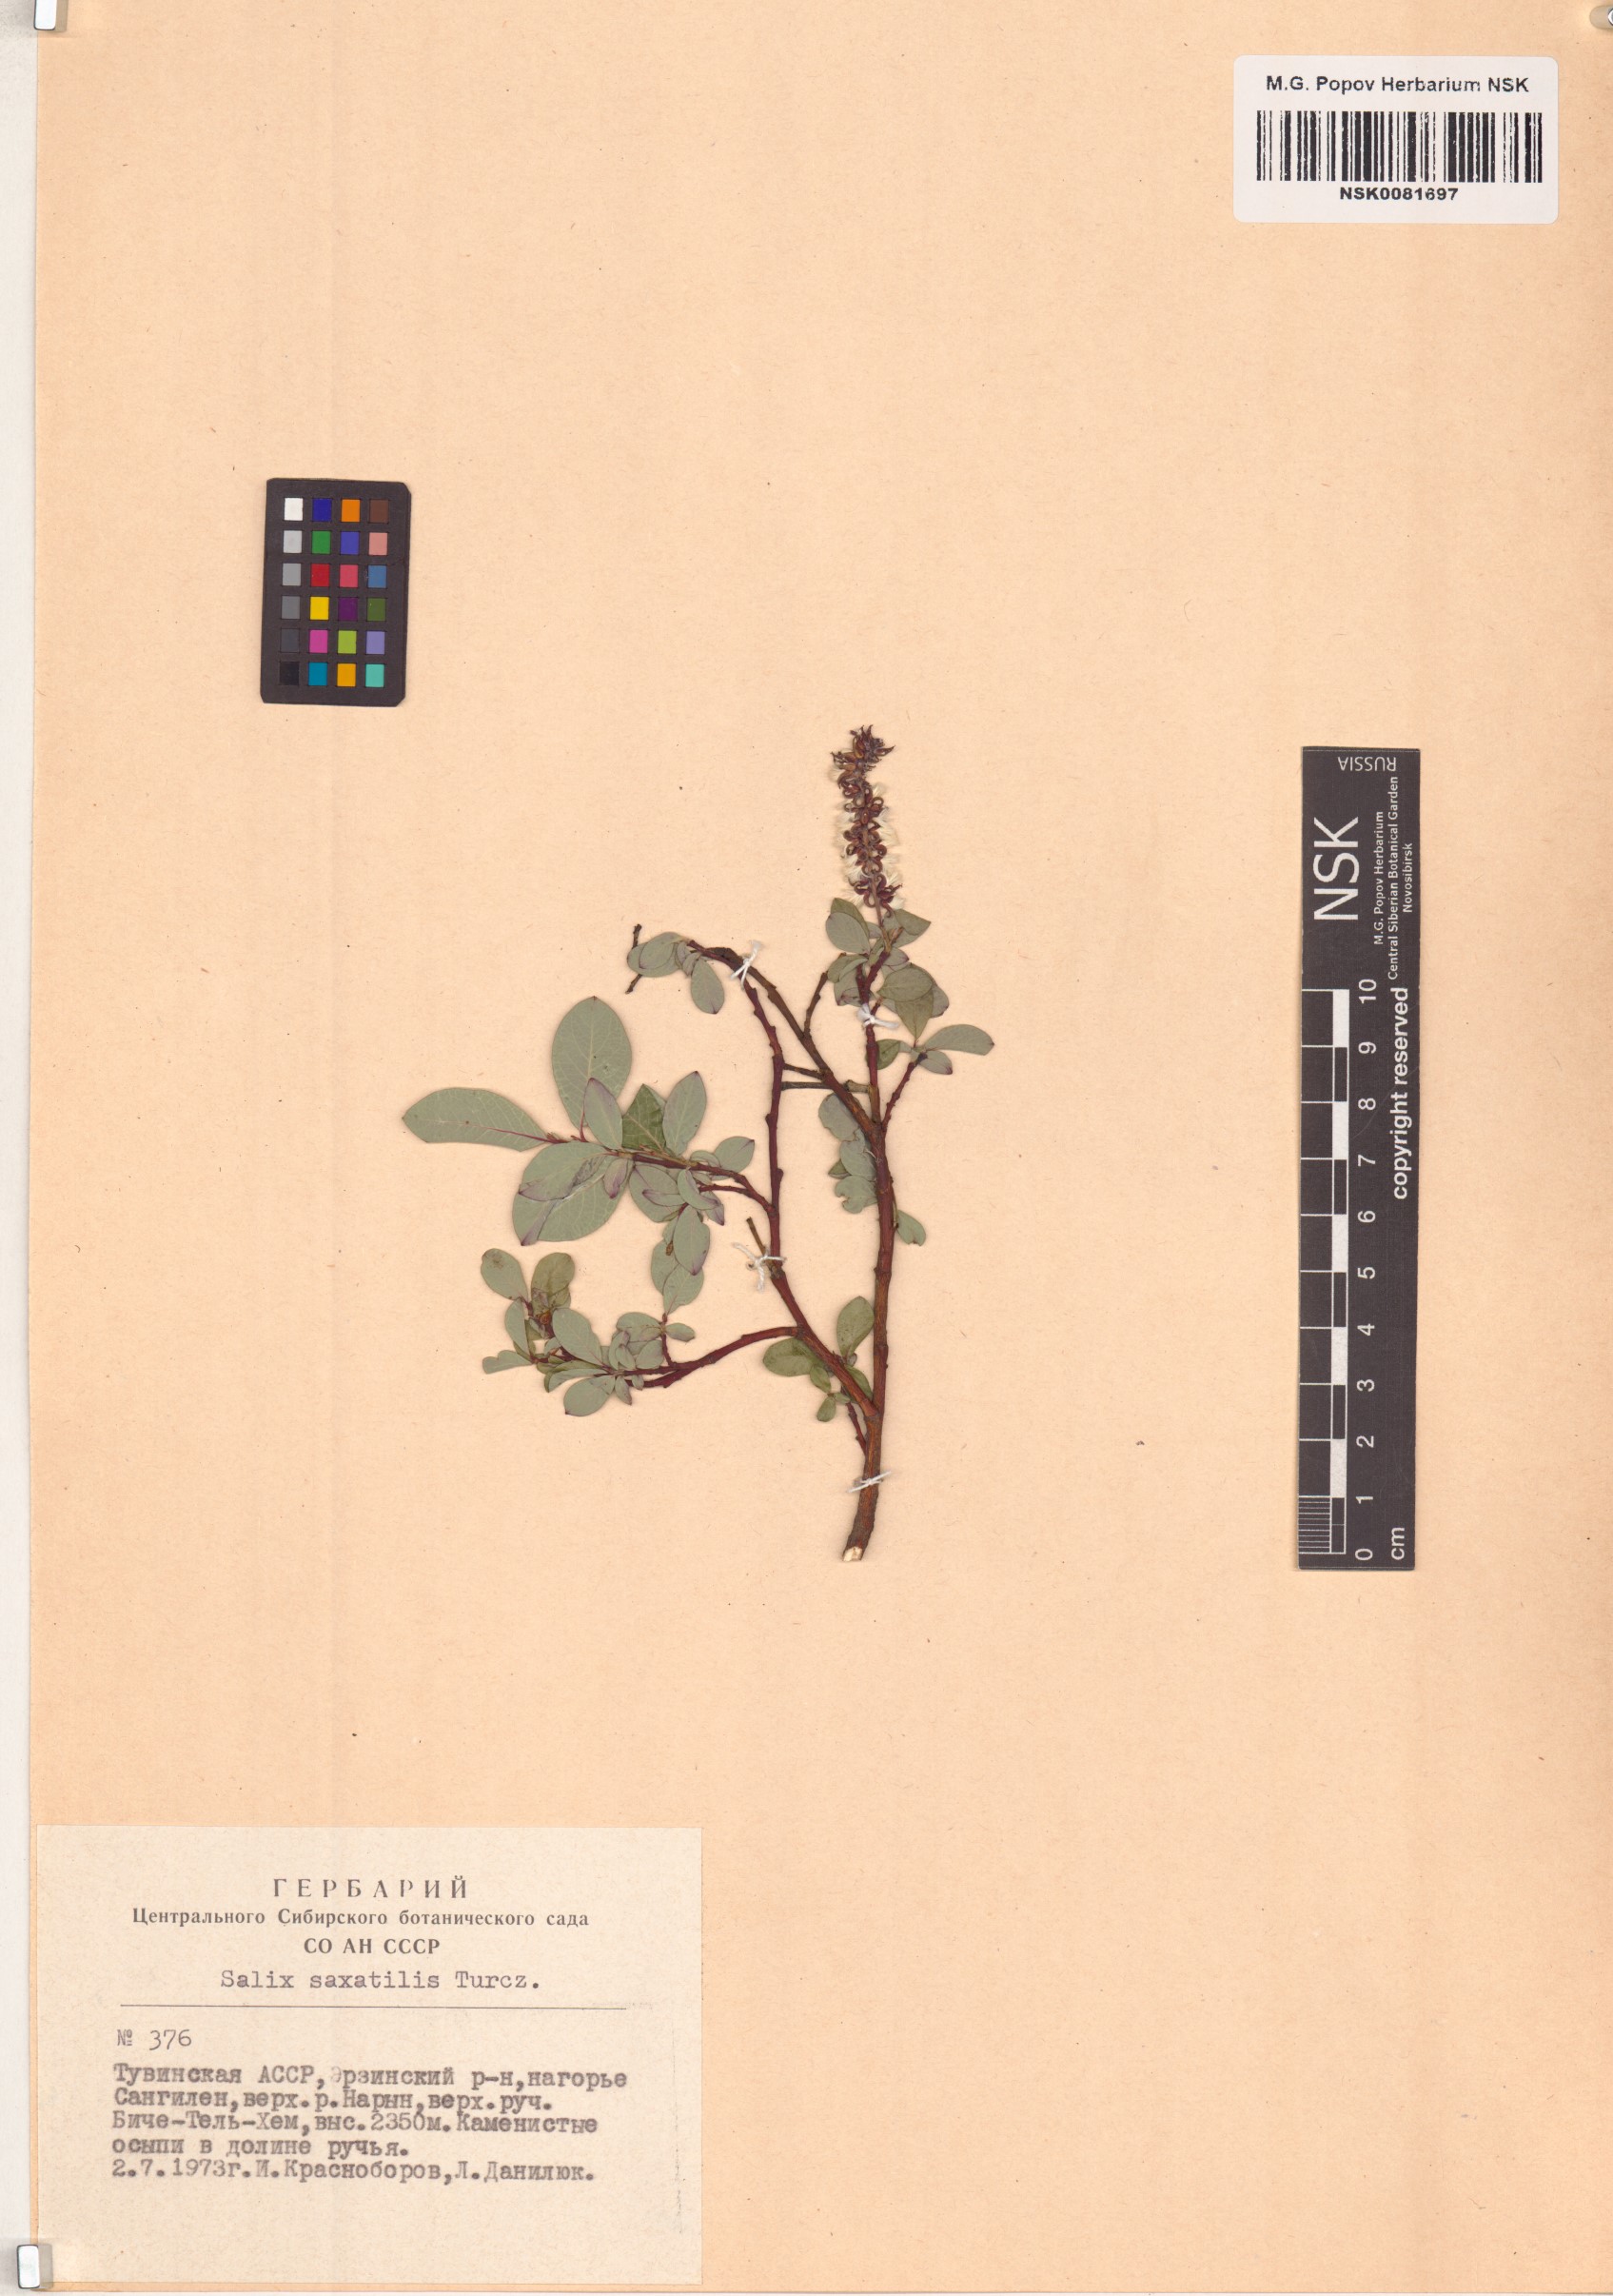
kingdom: Plantae
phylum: Tracheophyta
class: Magnoliopsida
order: Malpighiales
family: Salicaceae
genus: Salix
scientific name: Salix saxatilis
